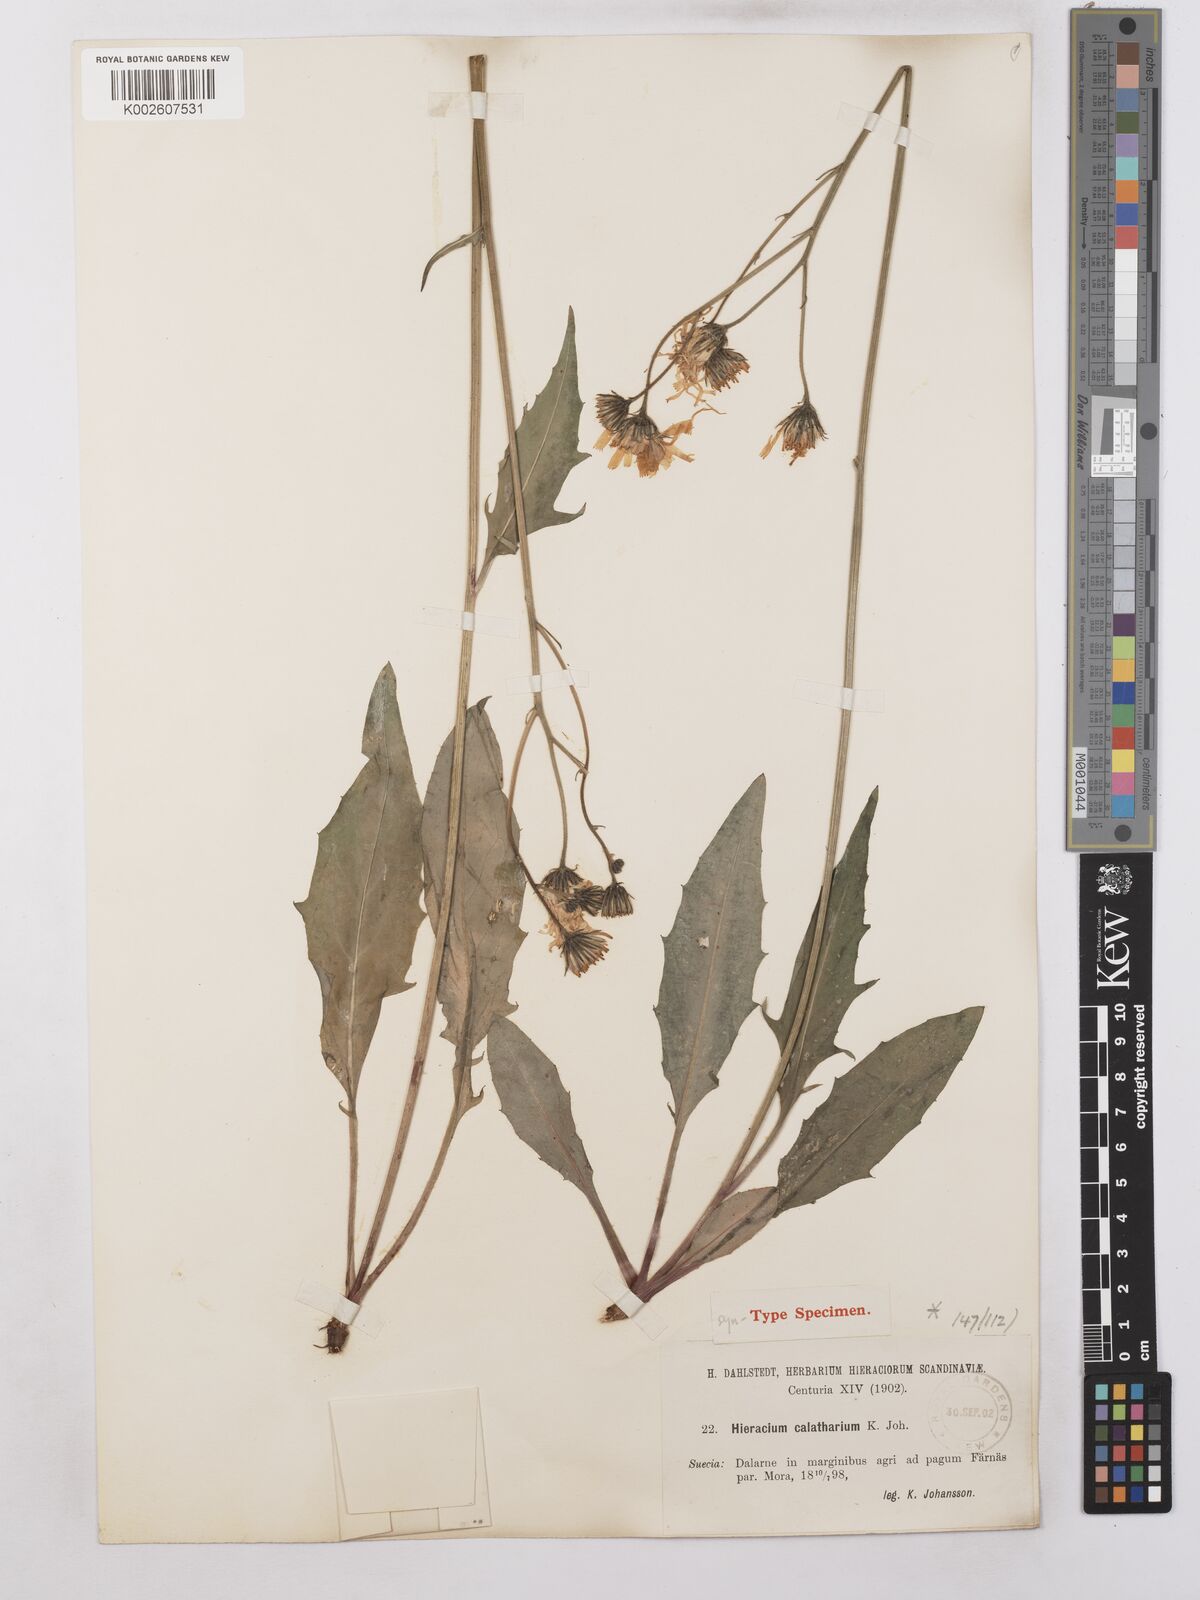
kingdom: Plantae
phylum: Tracheophyta
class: Magnoliopsida
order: Asterales
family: Asteraceae
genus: Hieracium
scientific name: Hieracium caesium
